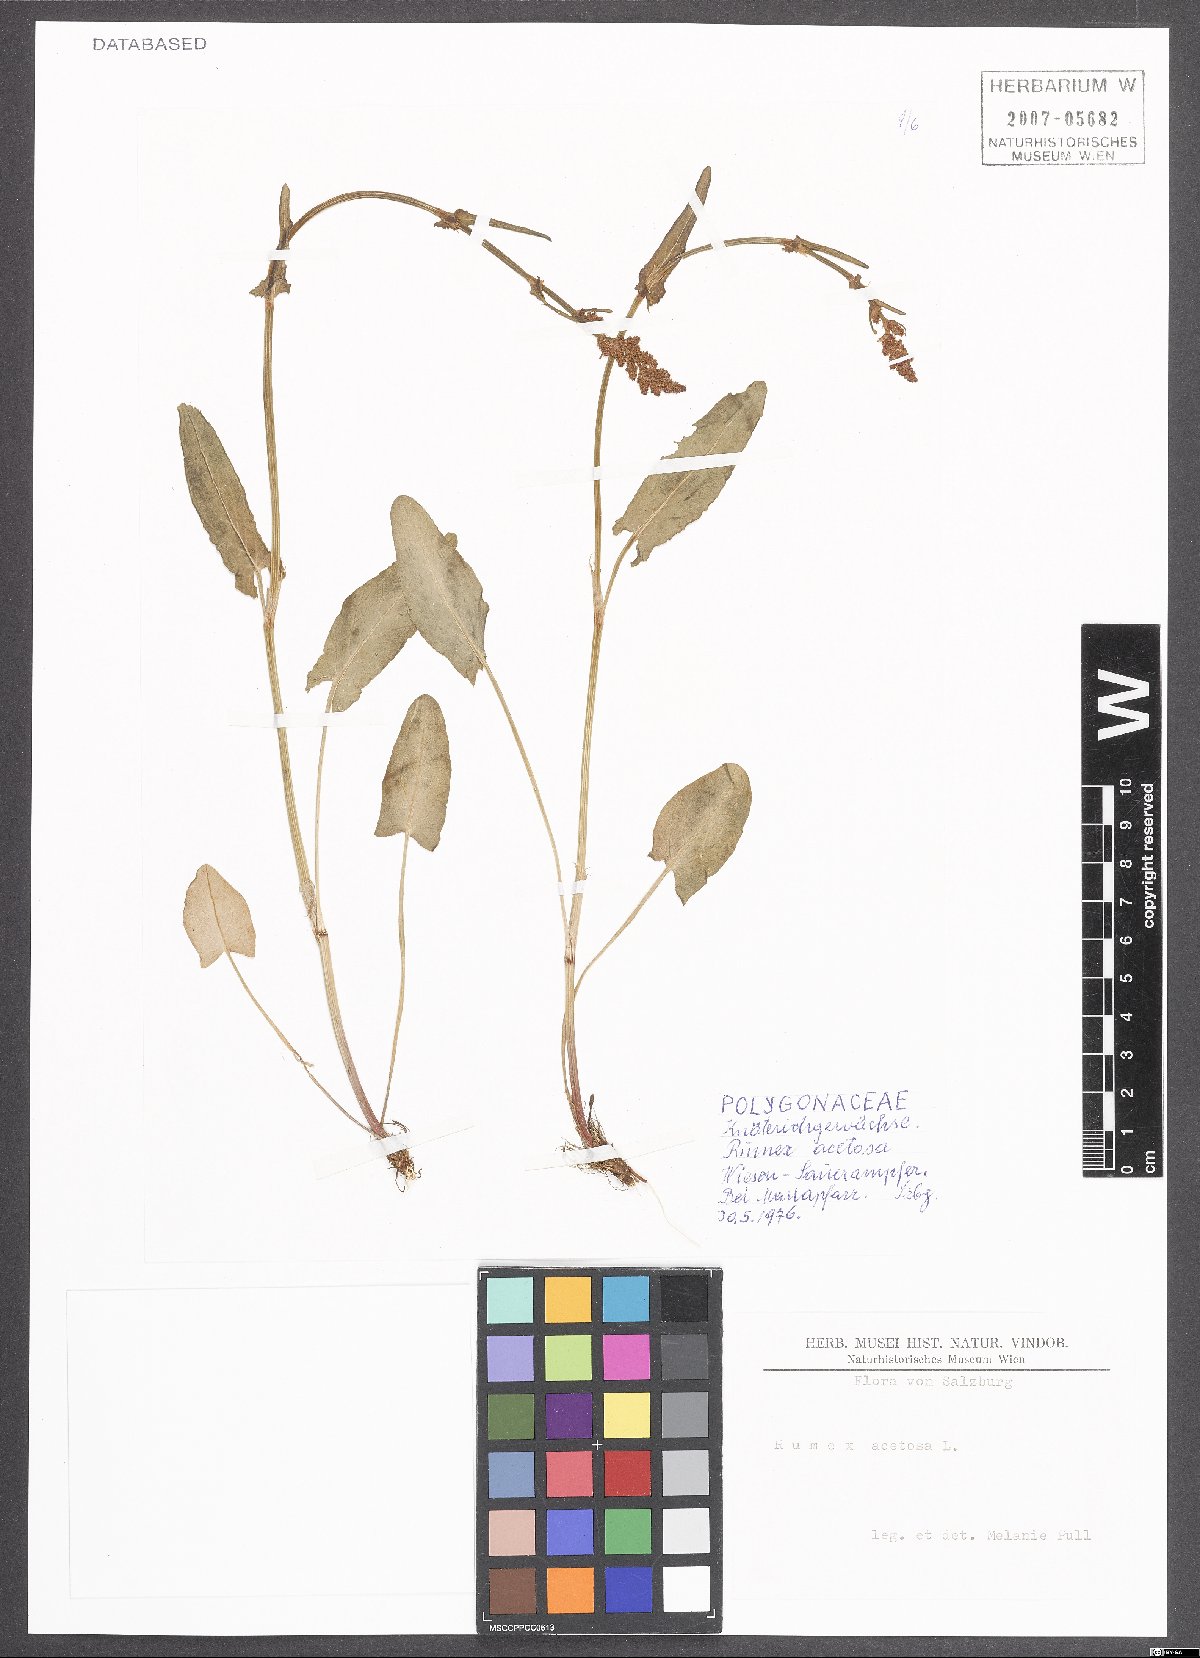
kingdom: Plantae
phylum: Tracheophyta
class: Magnoliopsida
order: Caryophyllales
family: Polygonaceae
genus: Rumex
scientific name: Rumex acetosa
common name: Garden sorrel
